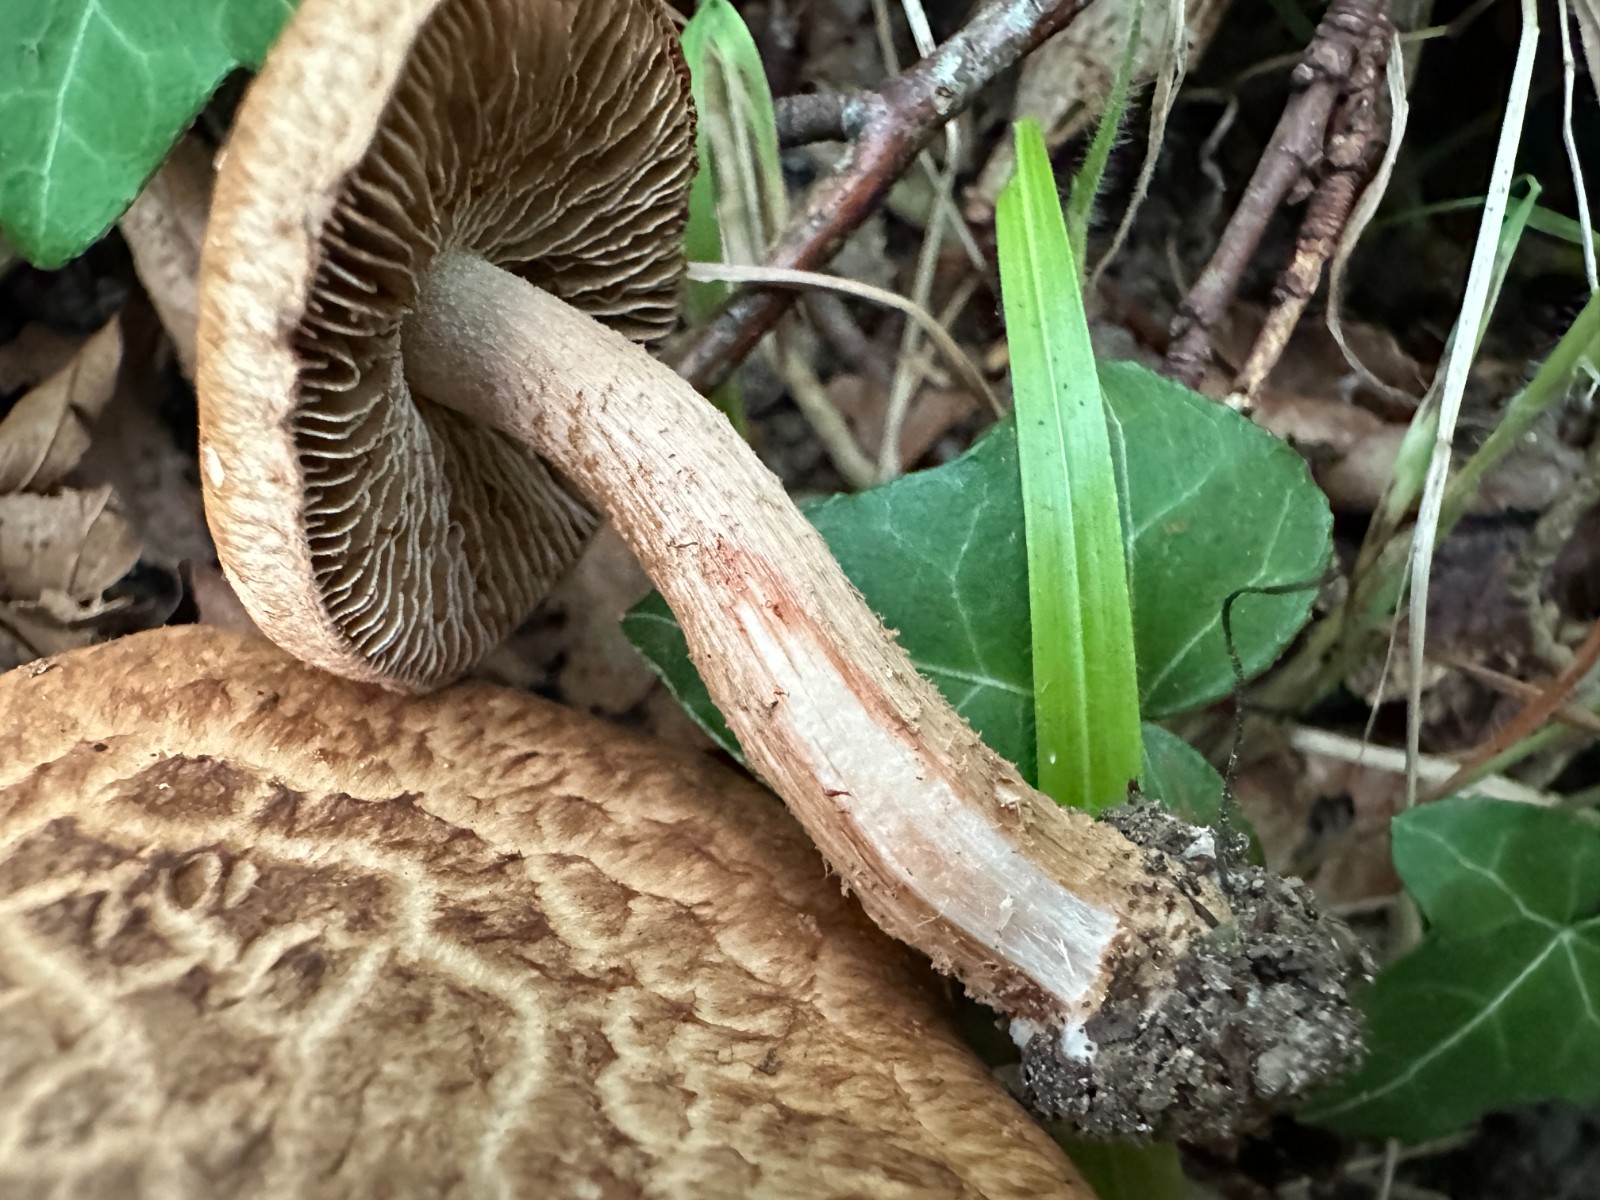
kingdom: Fungi
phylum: Basidiomycota
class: Agaricomycetes
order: Agaricales
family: Inocybaceae
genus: Inosperma
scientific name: Inosperma bongardii
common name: Bongards trævlhat
